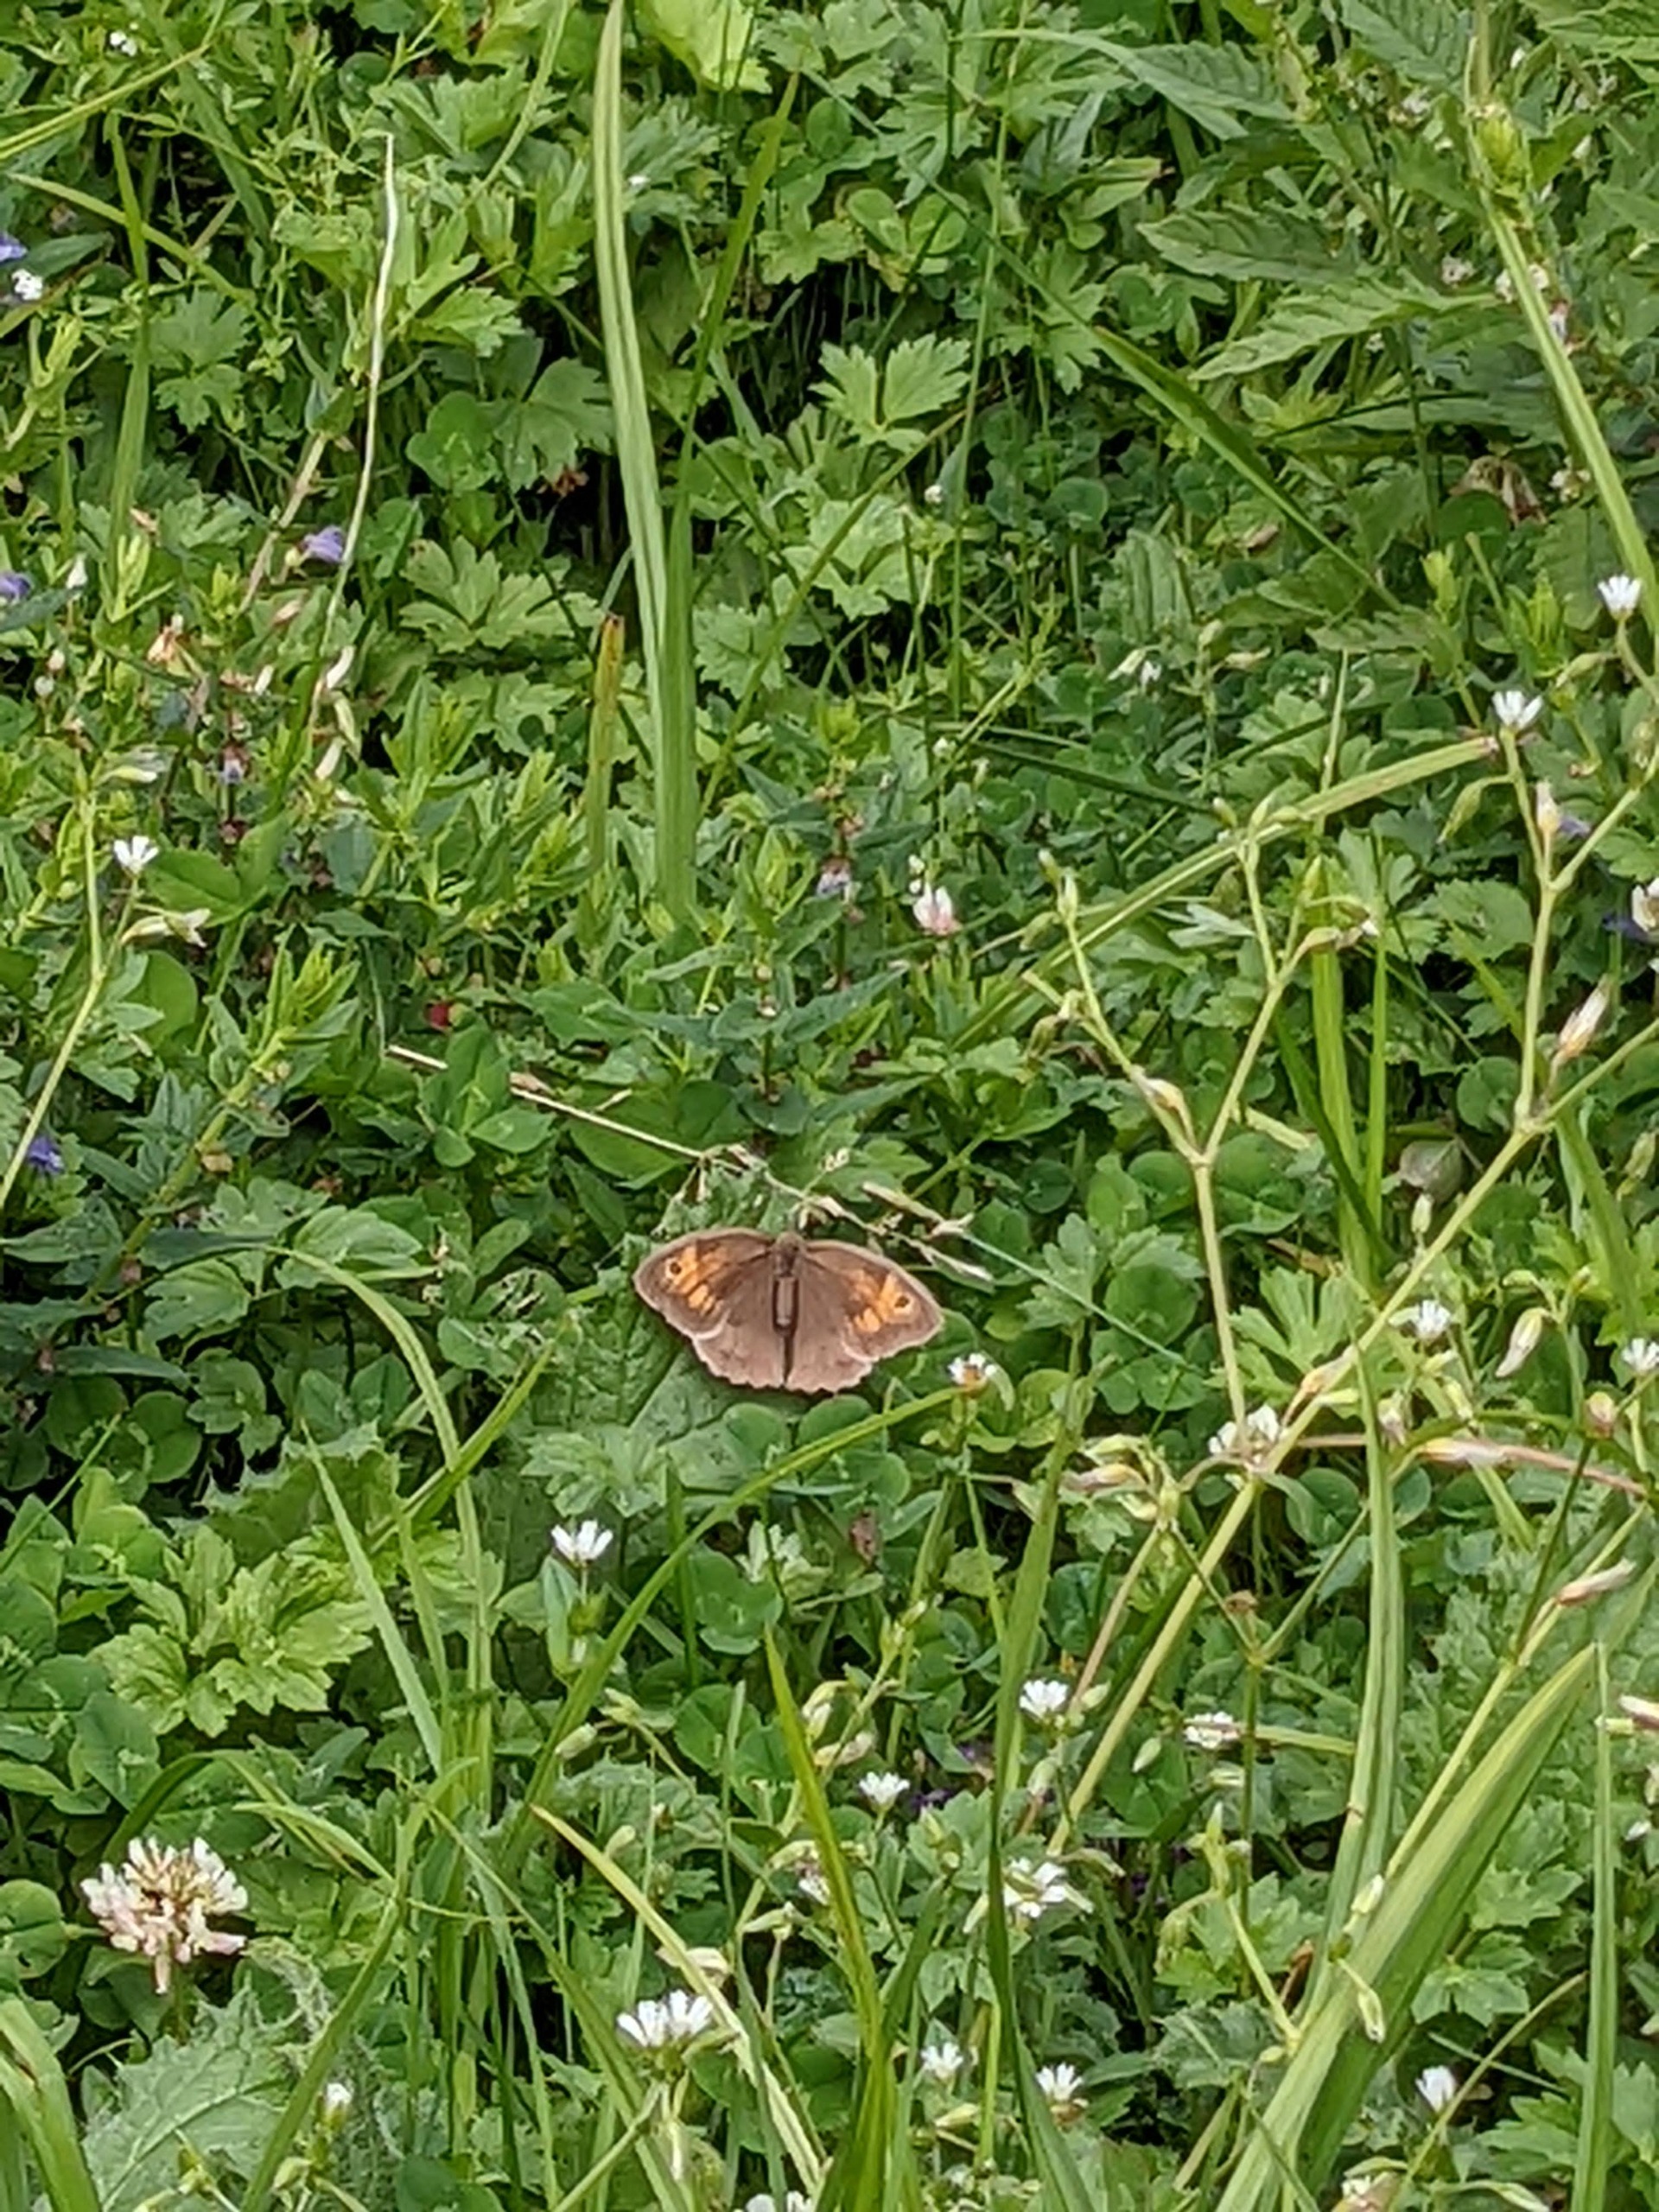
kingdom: Animalia
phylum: Arthropoda
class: Insecta
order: Lepidoptera
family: Nymphalidae
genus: Maniola
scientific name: Maniola jurtina
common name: Græsrandøje
